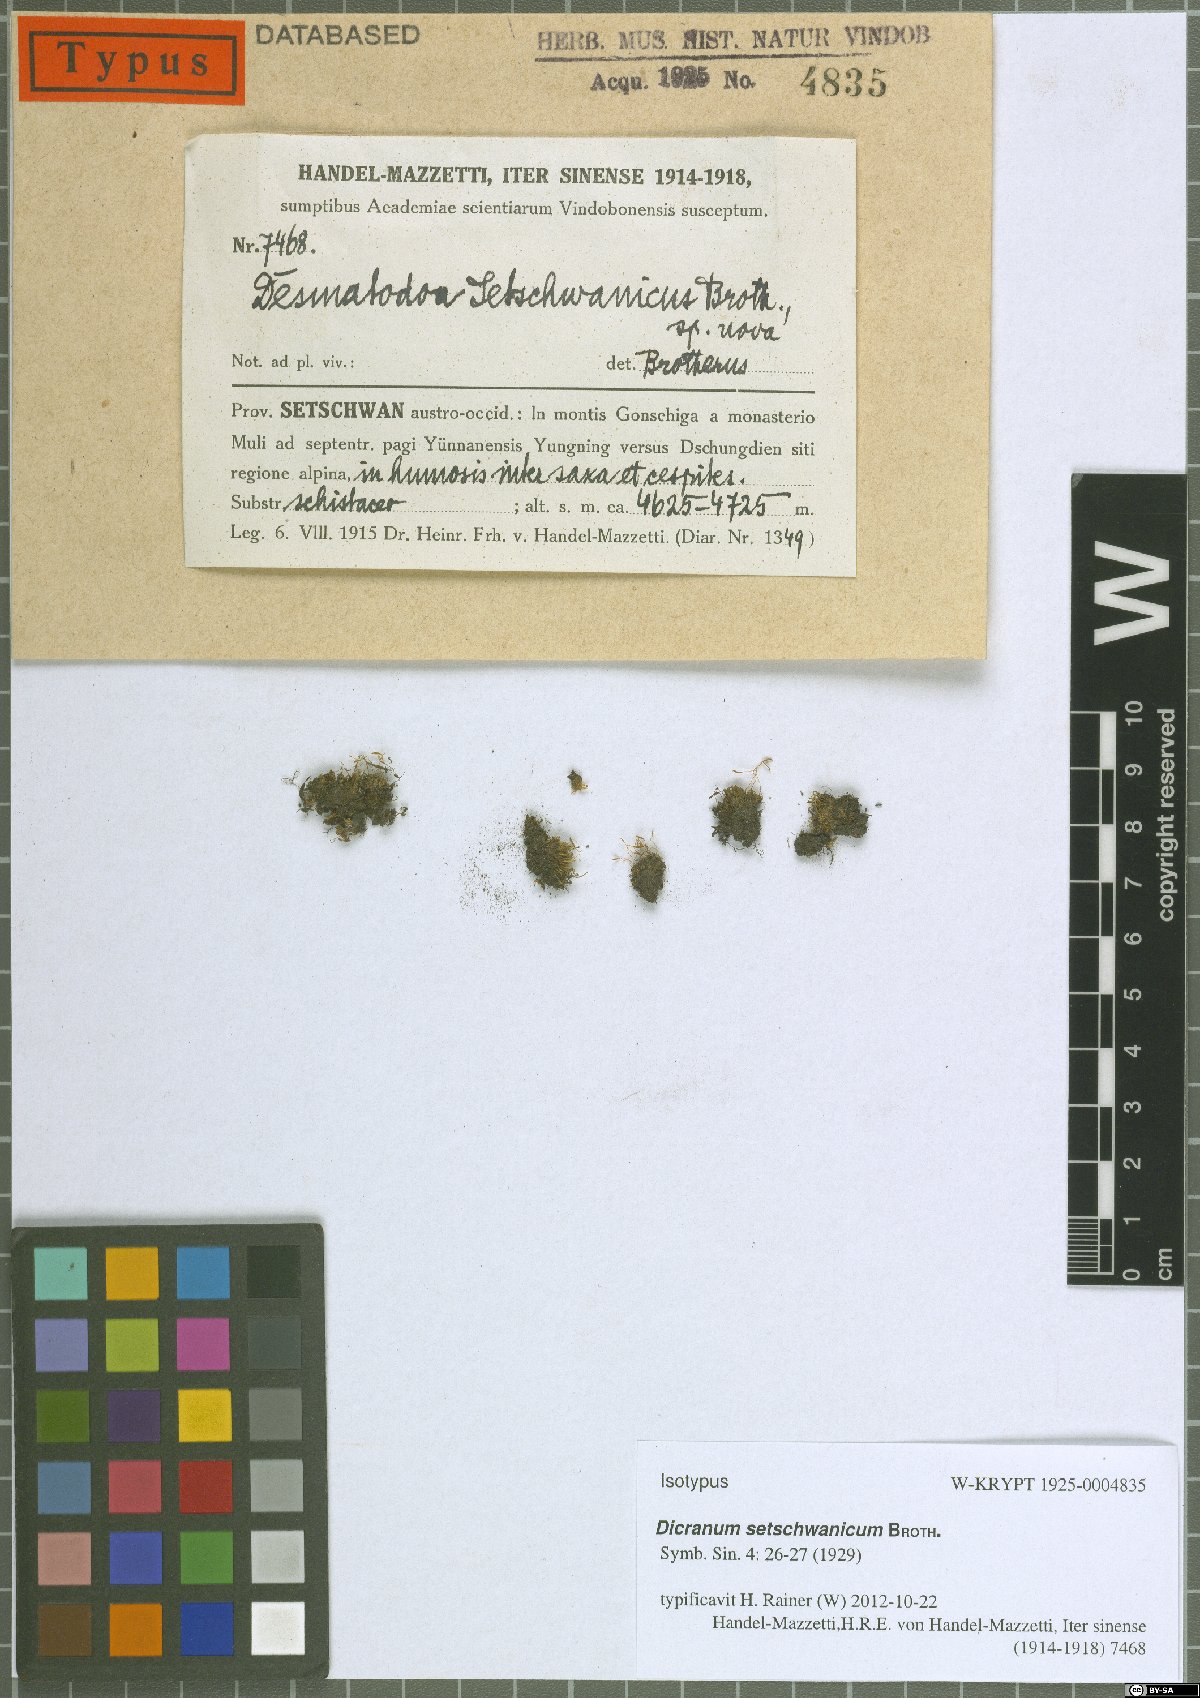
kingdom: Plantae
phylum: Bryophyta
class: Bryopsida
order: Pottiales
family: Pottiaceae
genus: Tortula
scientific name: Tortula laureri
